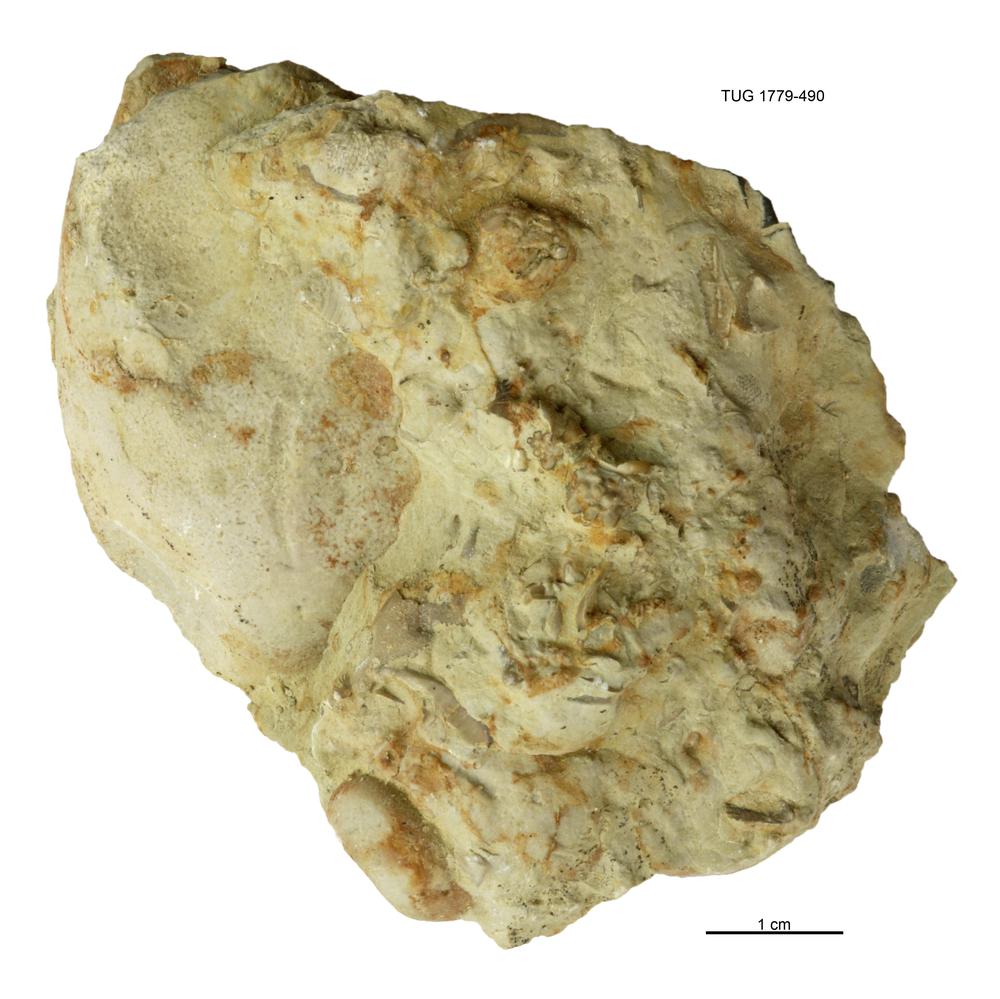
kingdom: Animalia
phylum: Mollusca
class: Bivalvia
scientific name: Bivalvia
